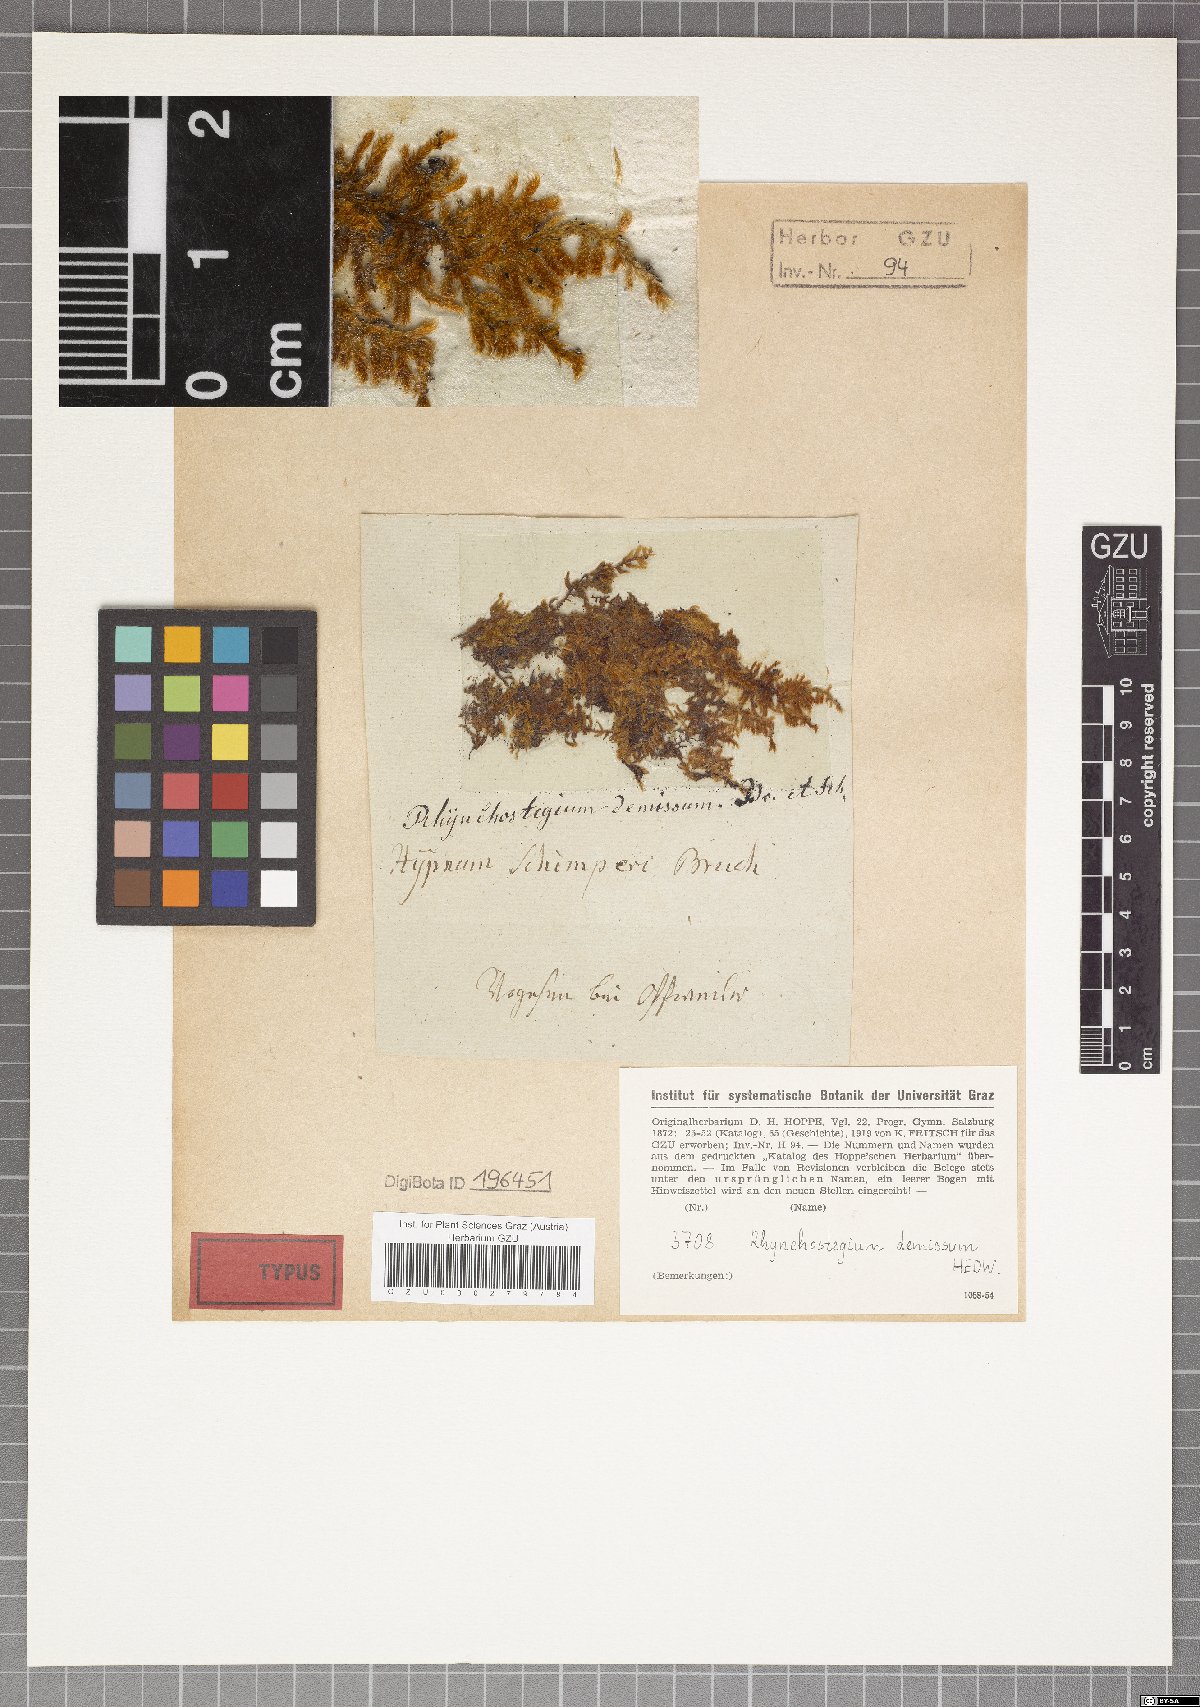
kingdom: Plantae
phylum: Bryophyta
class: Bryopsida
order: Hypnales
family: Sematophyllaceae
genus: Sematophyllum
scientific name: Sematophyllum demissum
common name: Prostrate feather-moss
